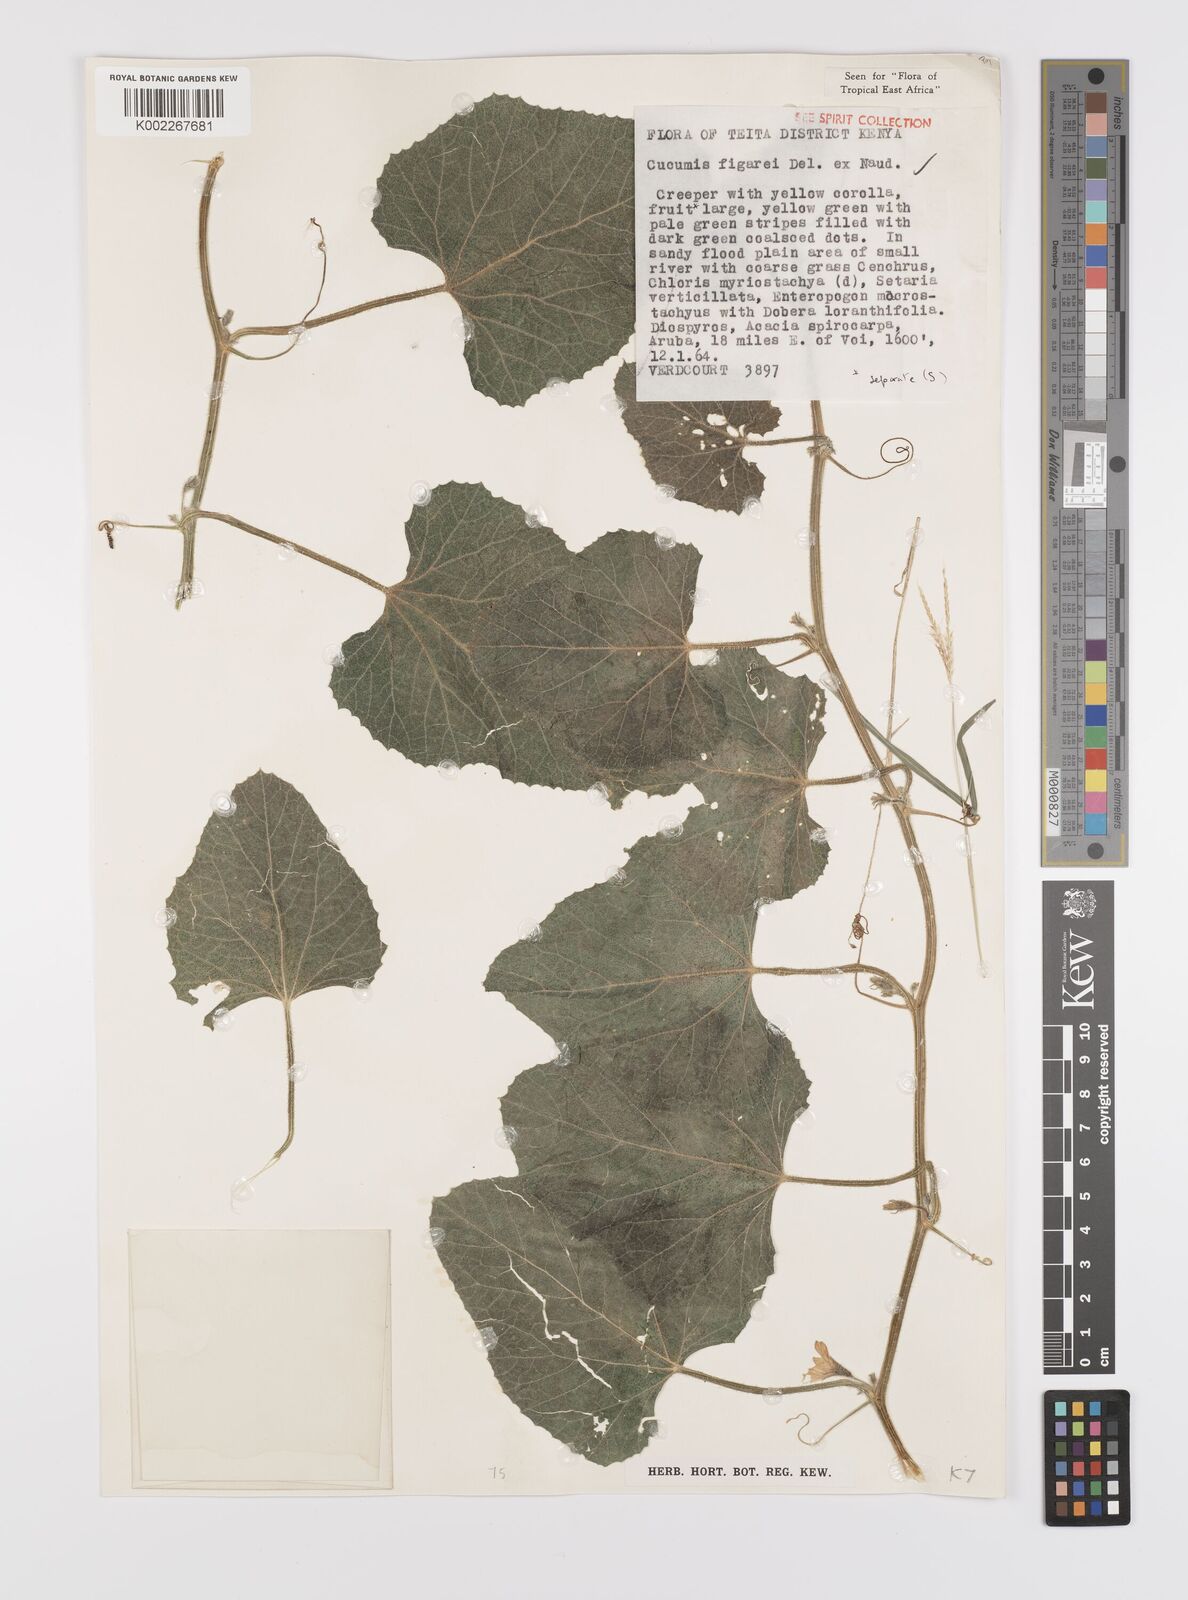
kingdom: Plantae
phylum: Tracheophyta
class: Magnoliopsida
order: Cucurbitales
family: Cucurbitaceae
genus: Cucumis
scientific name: Cucumis
